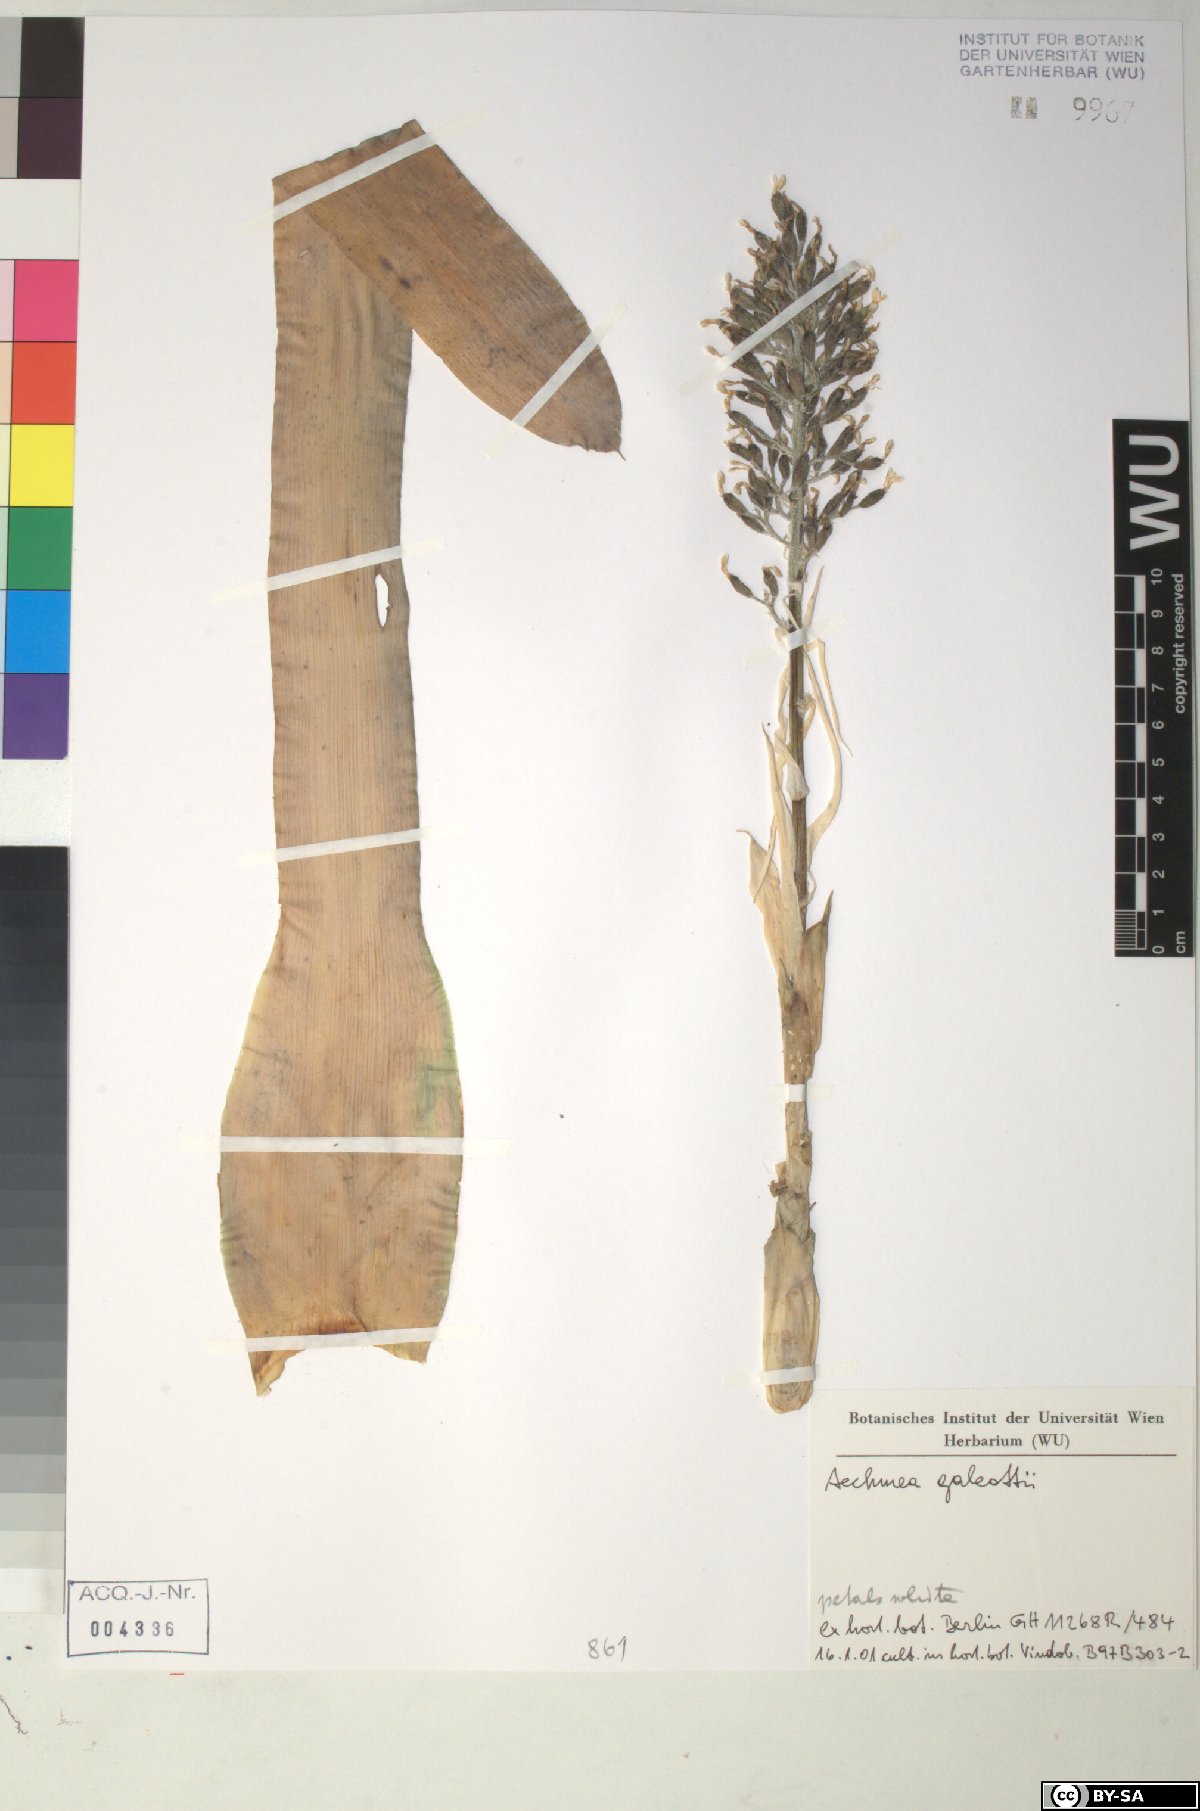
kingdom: Plantae
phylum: Tracheophyta
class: Liliopsida
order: Poales
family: Bromeliaceae
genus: Aechmea
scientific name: Aechmea
